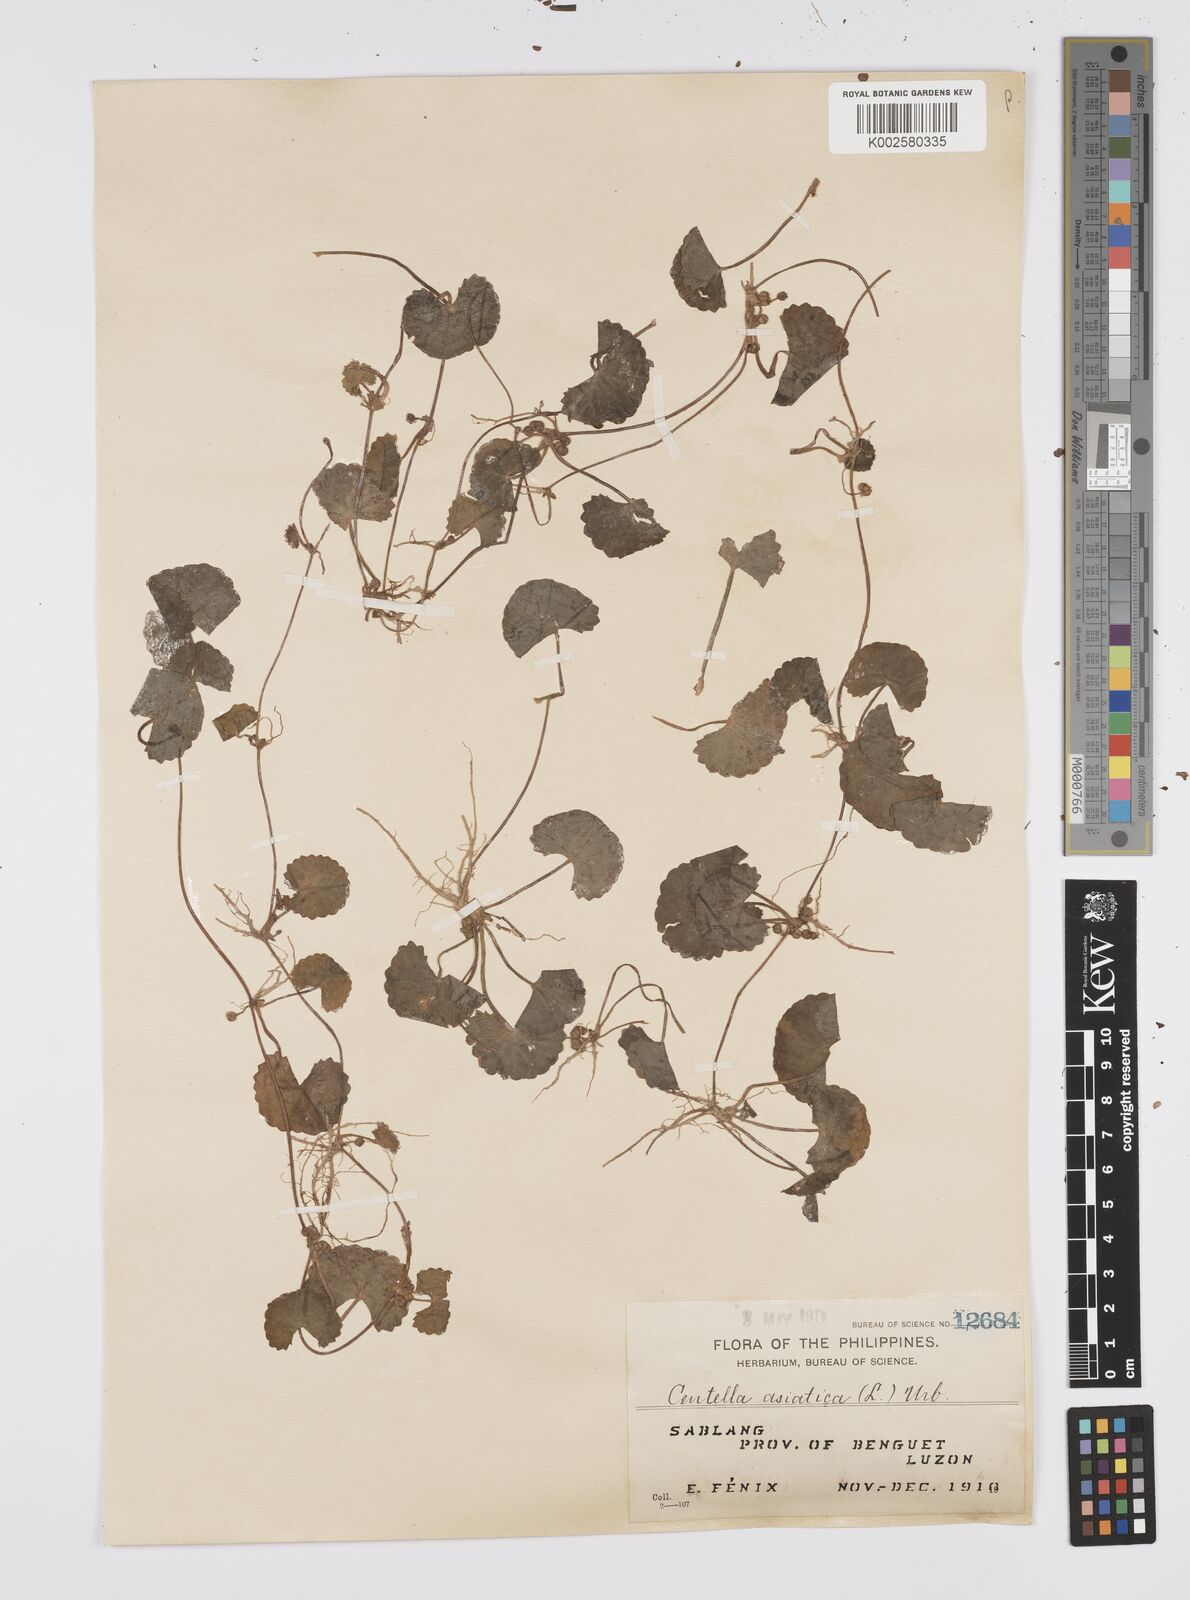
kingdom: Plantae
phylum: Tracheophyta
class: Magnoliopsida
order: Apiales
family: Apiaceae
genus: Centella
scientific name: Centella asiatica
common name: Spadeleaf
